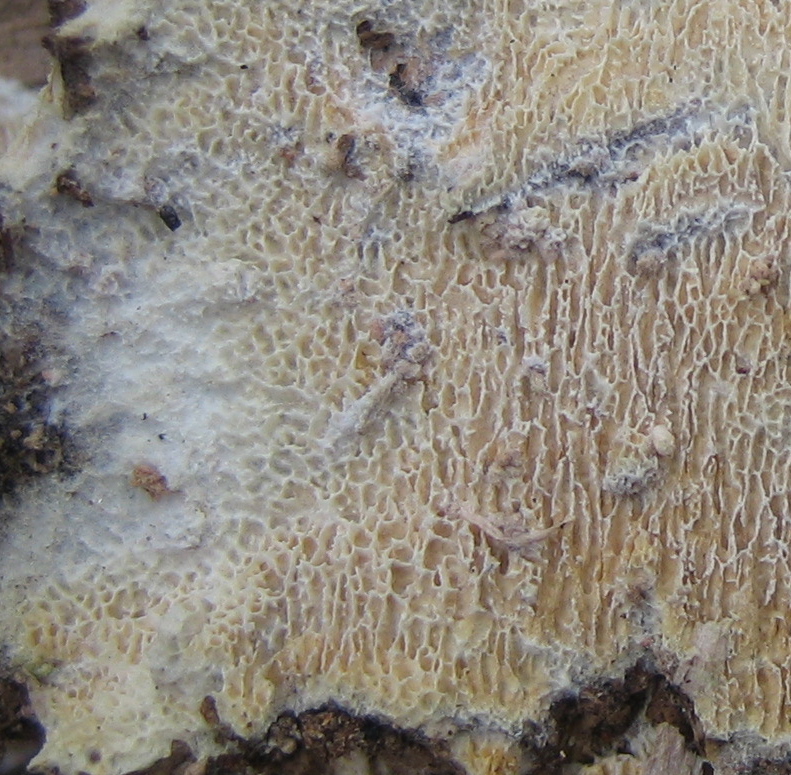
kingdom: Fungi
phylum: Basidiomycota
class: Agaricomycetes
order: Hymenochaetales
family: Schizoporaceae
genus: Xylodon
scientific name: Xylodon subtropicus
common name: labyrint-tandsvamp
